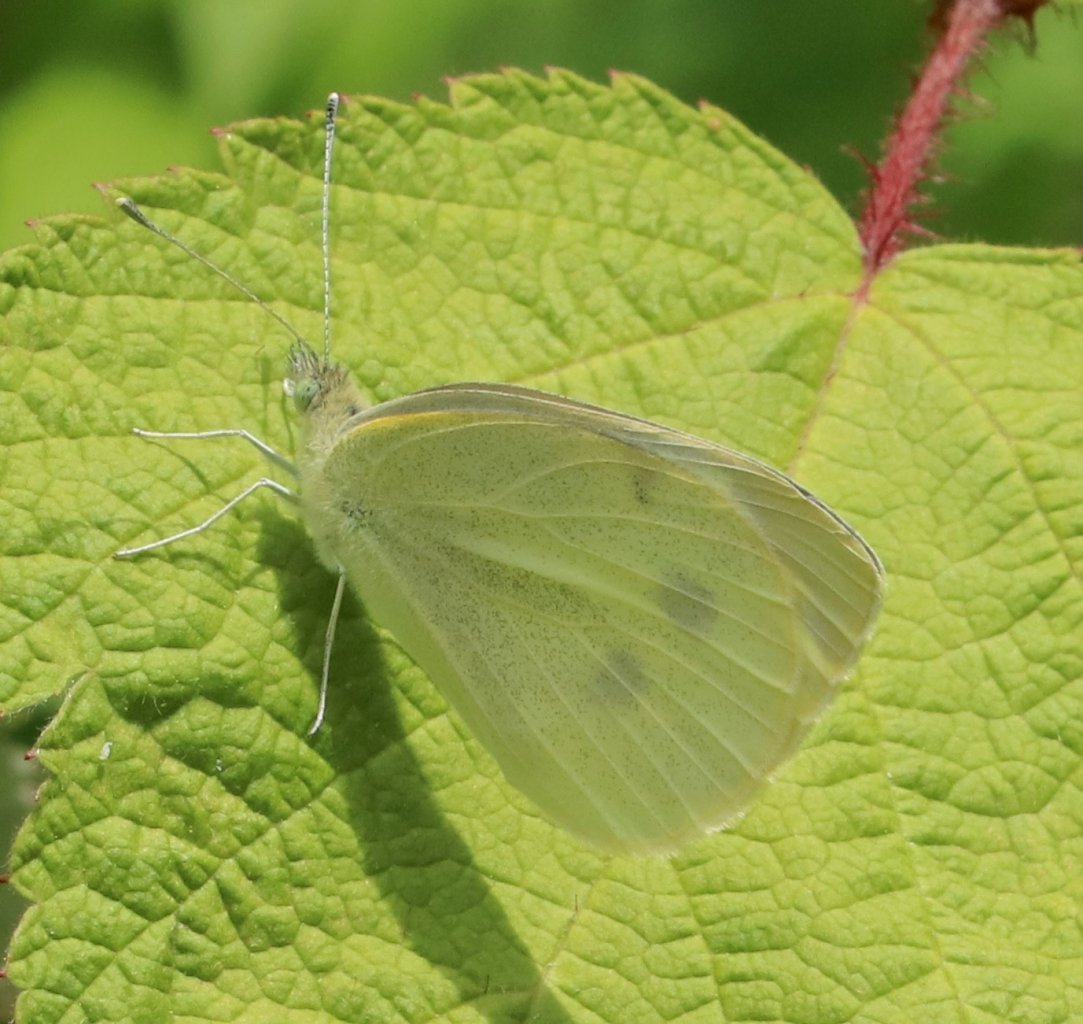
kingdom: Animalia
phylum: Arthropoda
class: Insecta
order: Lepidoptera
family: Pieridae
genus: Pieris
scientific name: Pieris rapae
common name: Cabbage White
